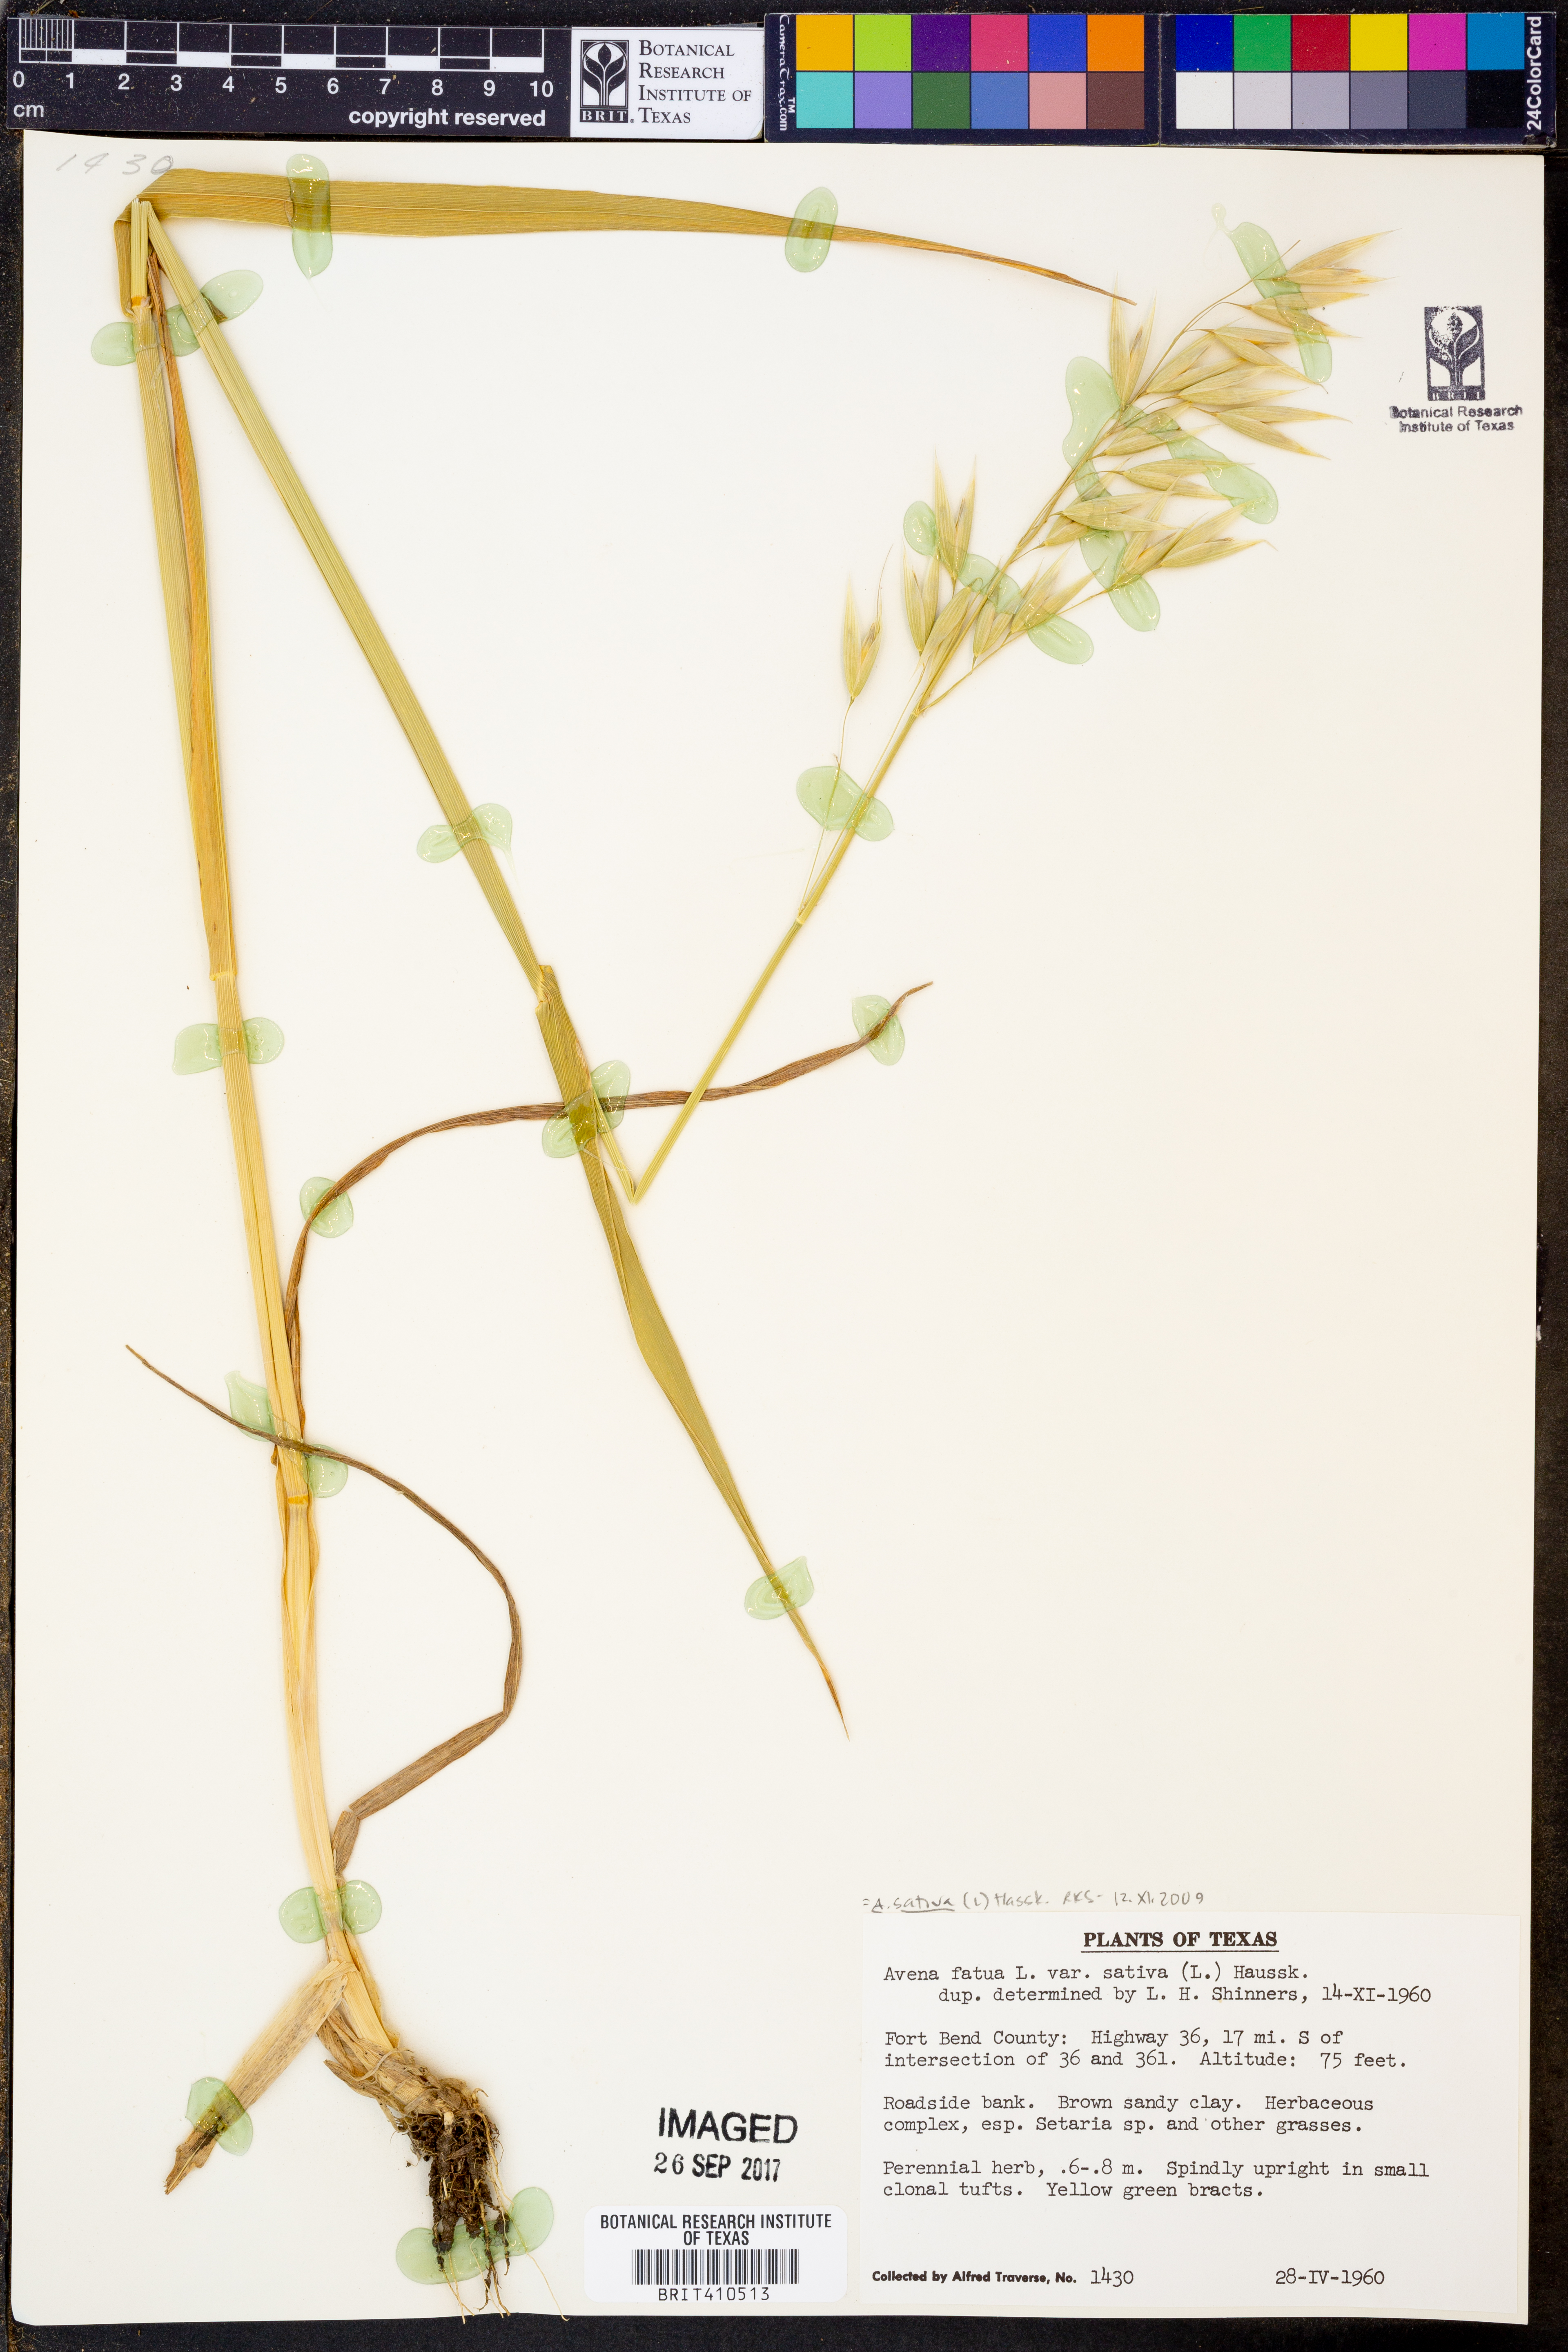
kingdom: Plantae
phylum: Tracheophyta
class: Liliopsida
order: Poales
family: Poaceae
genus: Avena
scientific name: Avena sativa
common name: Oat
